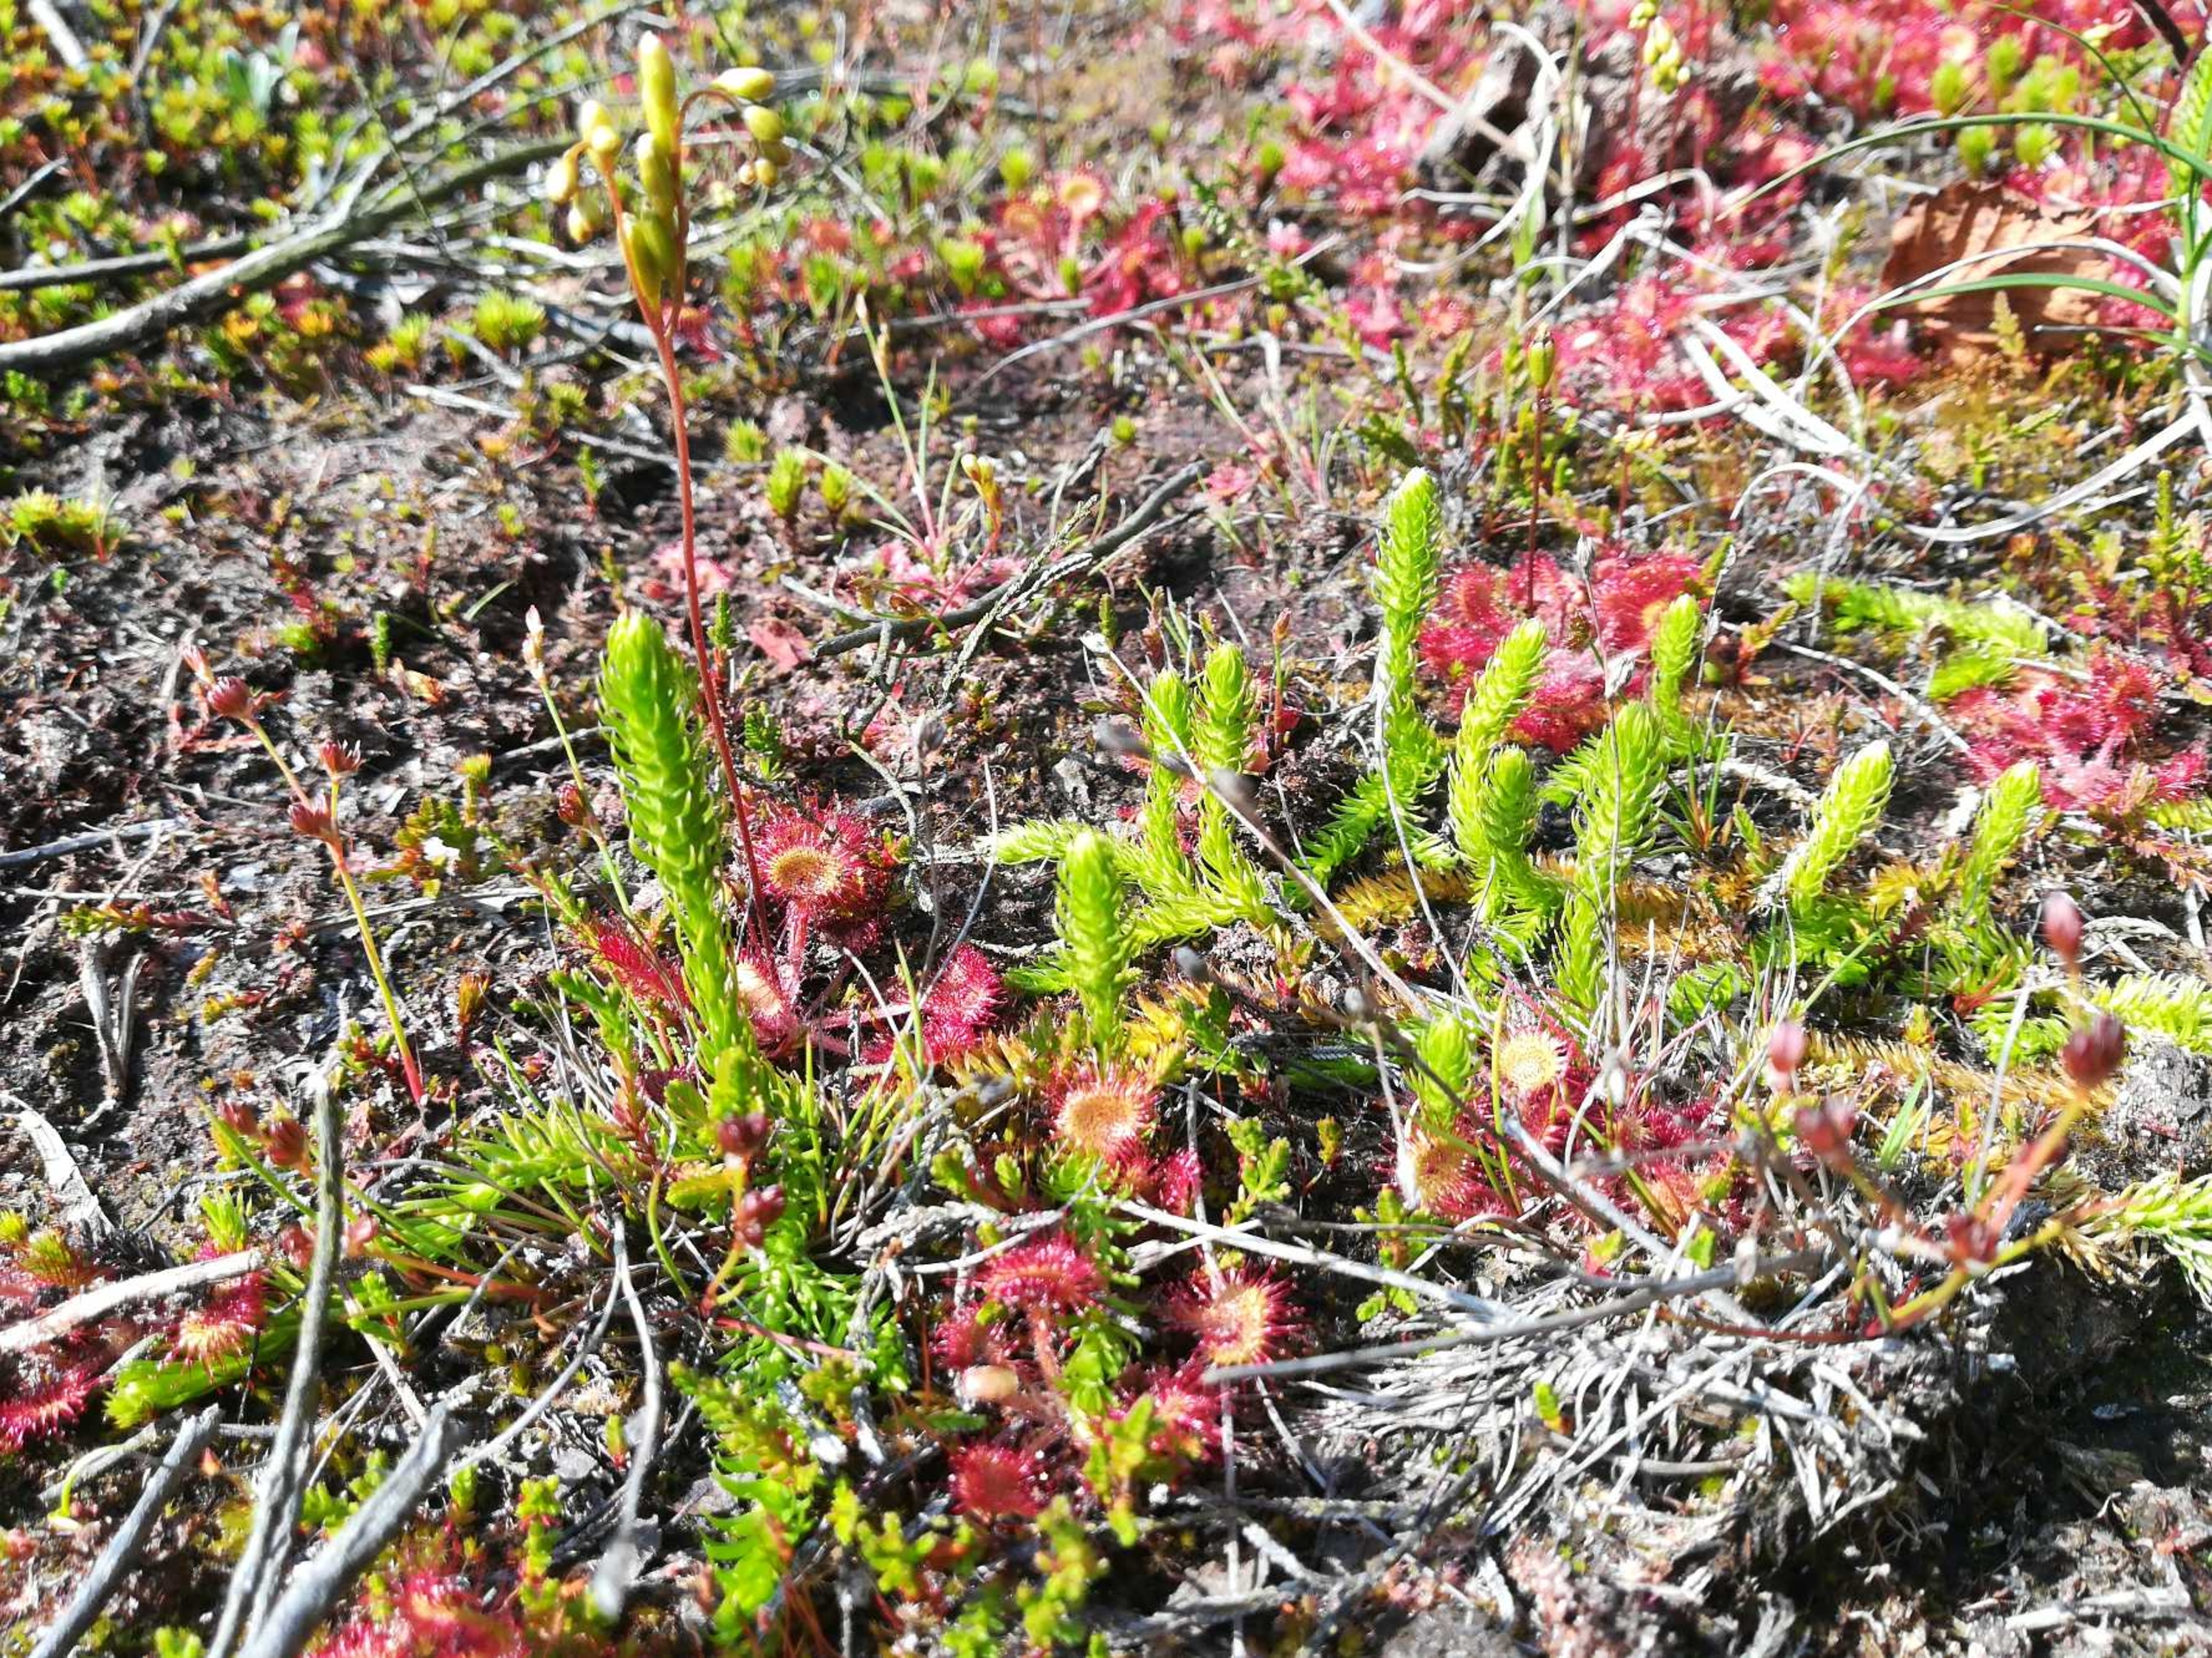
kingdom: Plantae
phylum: Tracheophyta
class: Lycopodiopsida
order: Lycopodiales
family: Lycopodiaceae
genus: Lycopodiella
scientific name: Lycopodiella inundata
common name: Liden ulvefod
